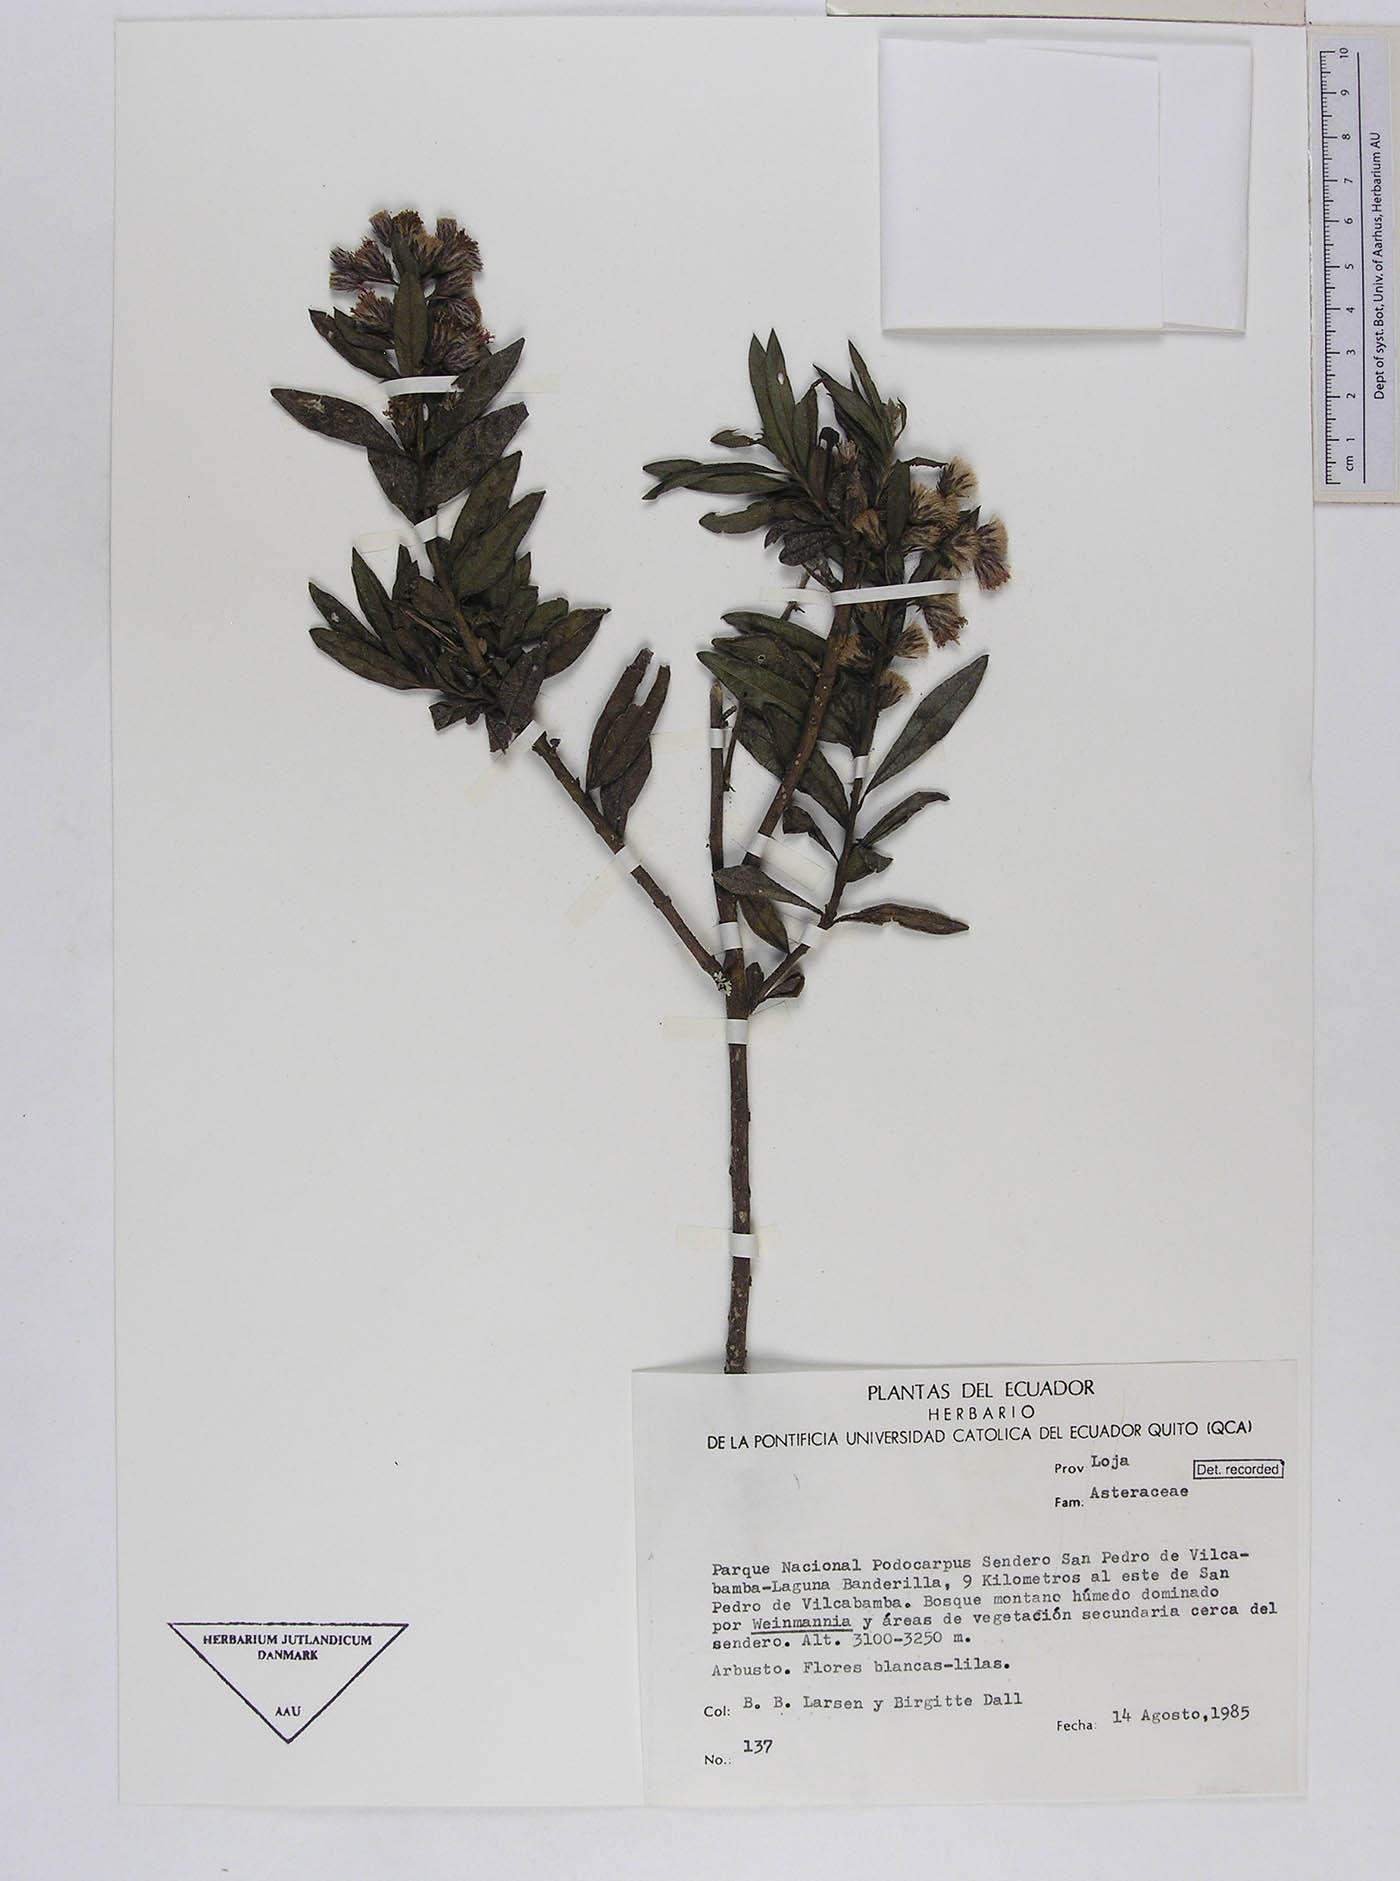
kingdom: Plantae
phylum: Tracheophyta
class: Magnoliopsida
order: Asterales
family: Asteraceae
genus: Lepidaploa
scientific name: Lepidaploa sordidopapposa
